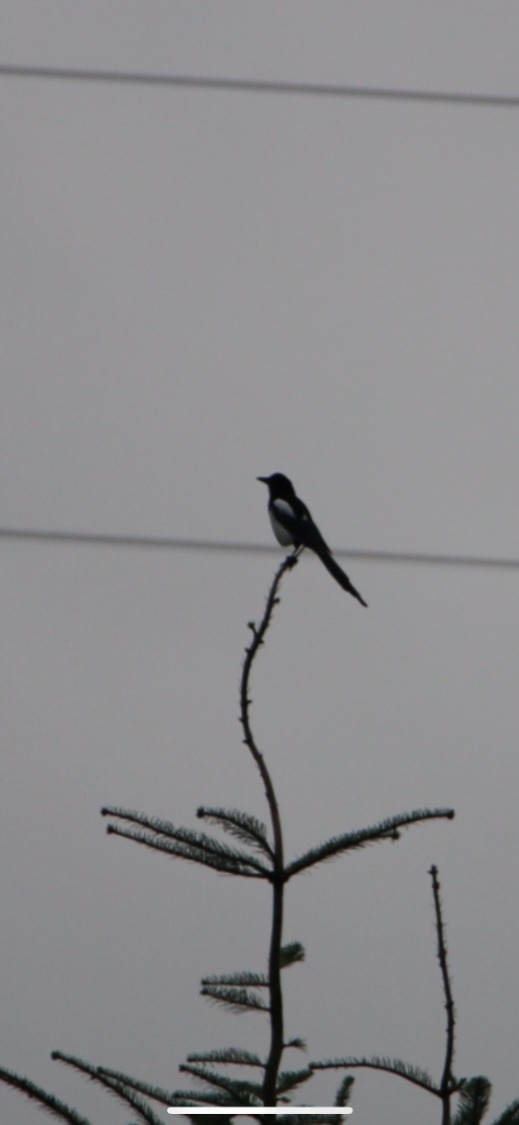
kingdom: Animalia
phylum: Chordata
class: Aves
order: Passeriformes
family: Corvidae
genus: Pica
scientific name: Pica pica
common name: Husskade
